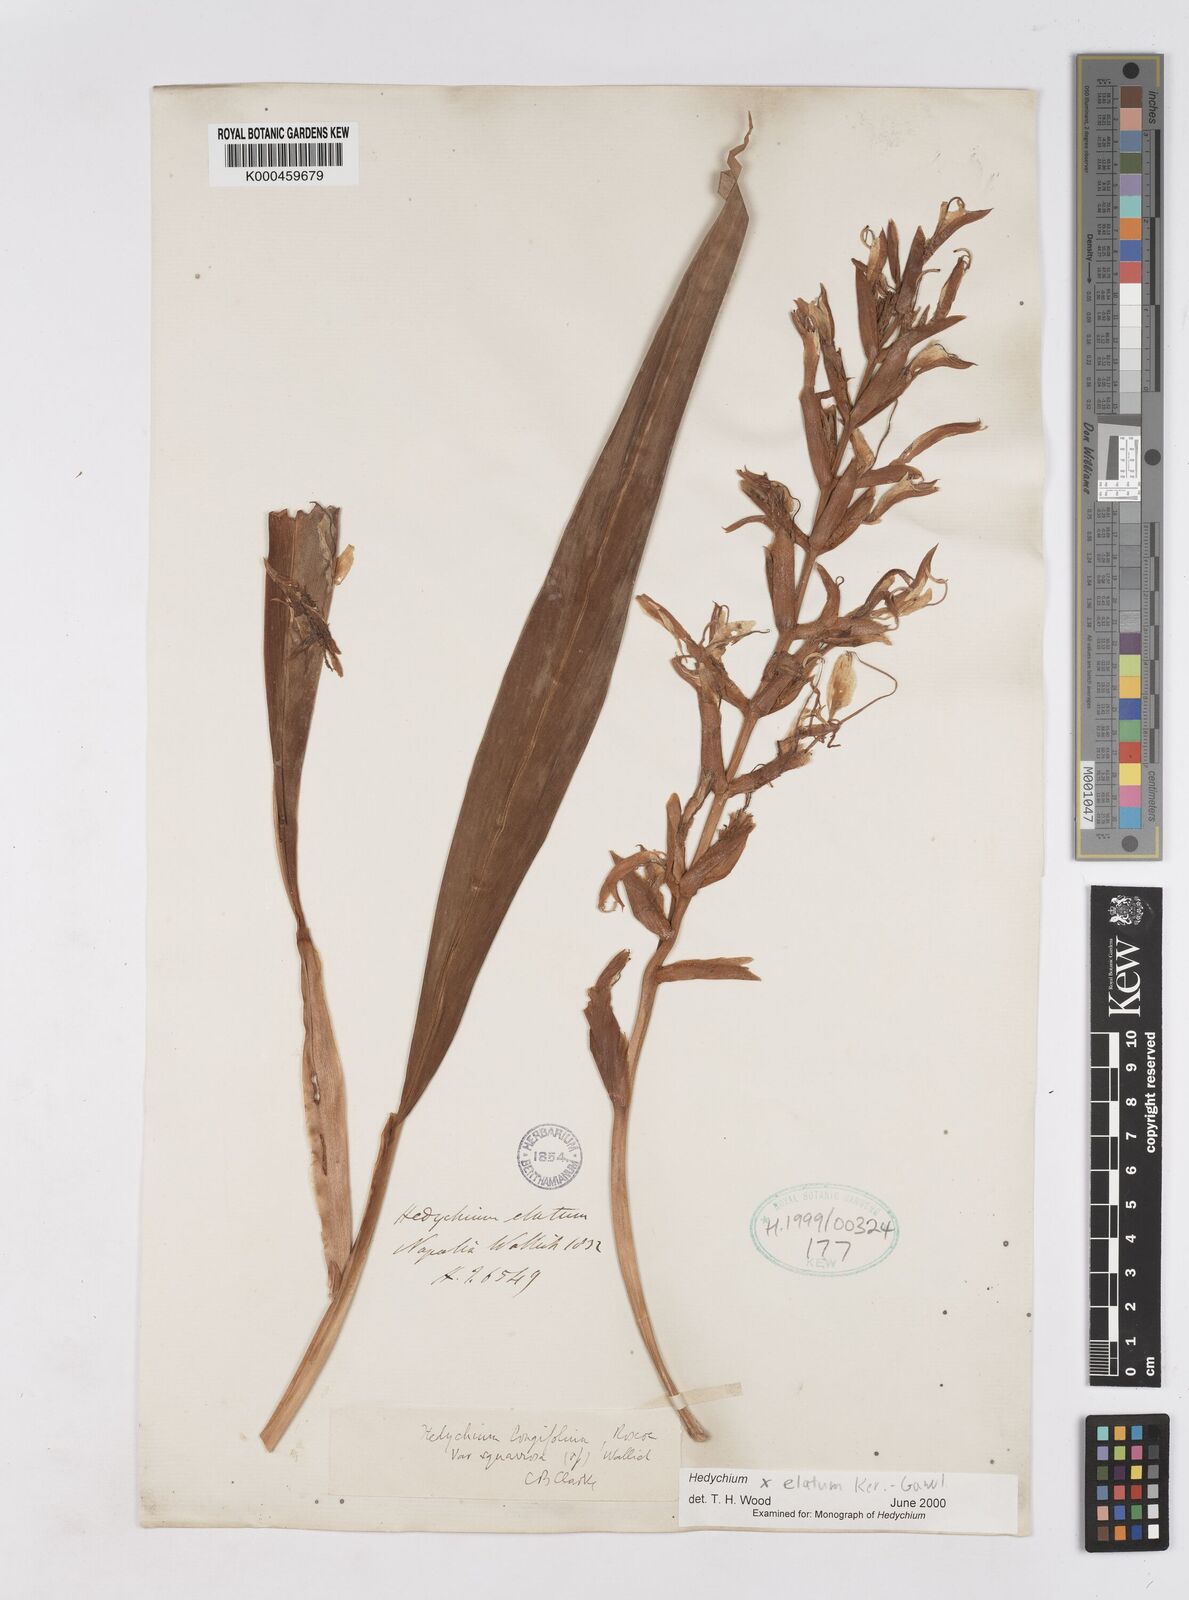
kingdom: Plantae
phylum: Tracheophyta
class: Liliopsida
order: Zingiberales
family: Zingiberaceae
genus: Hedychium
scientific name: Hedychium elatum
